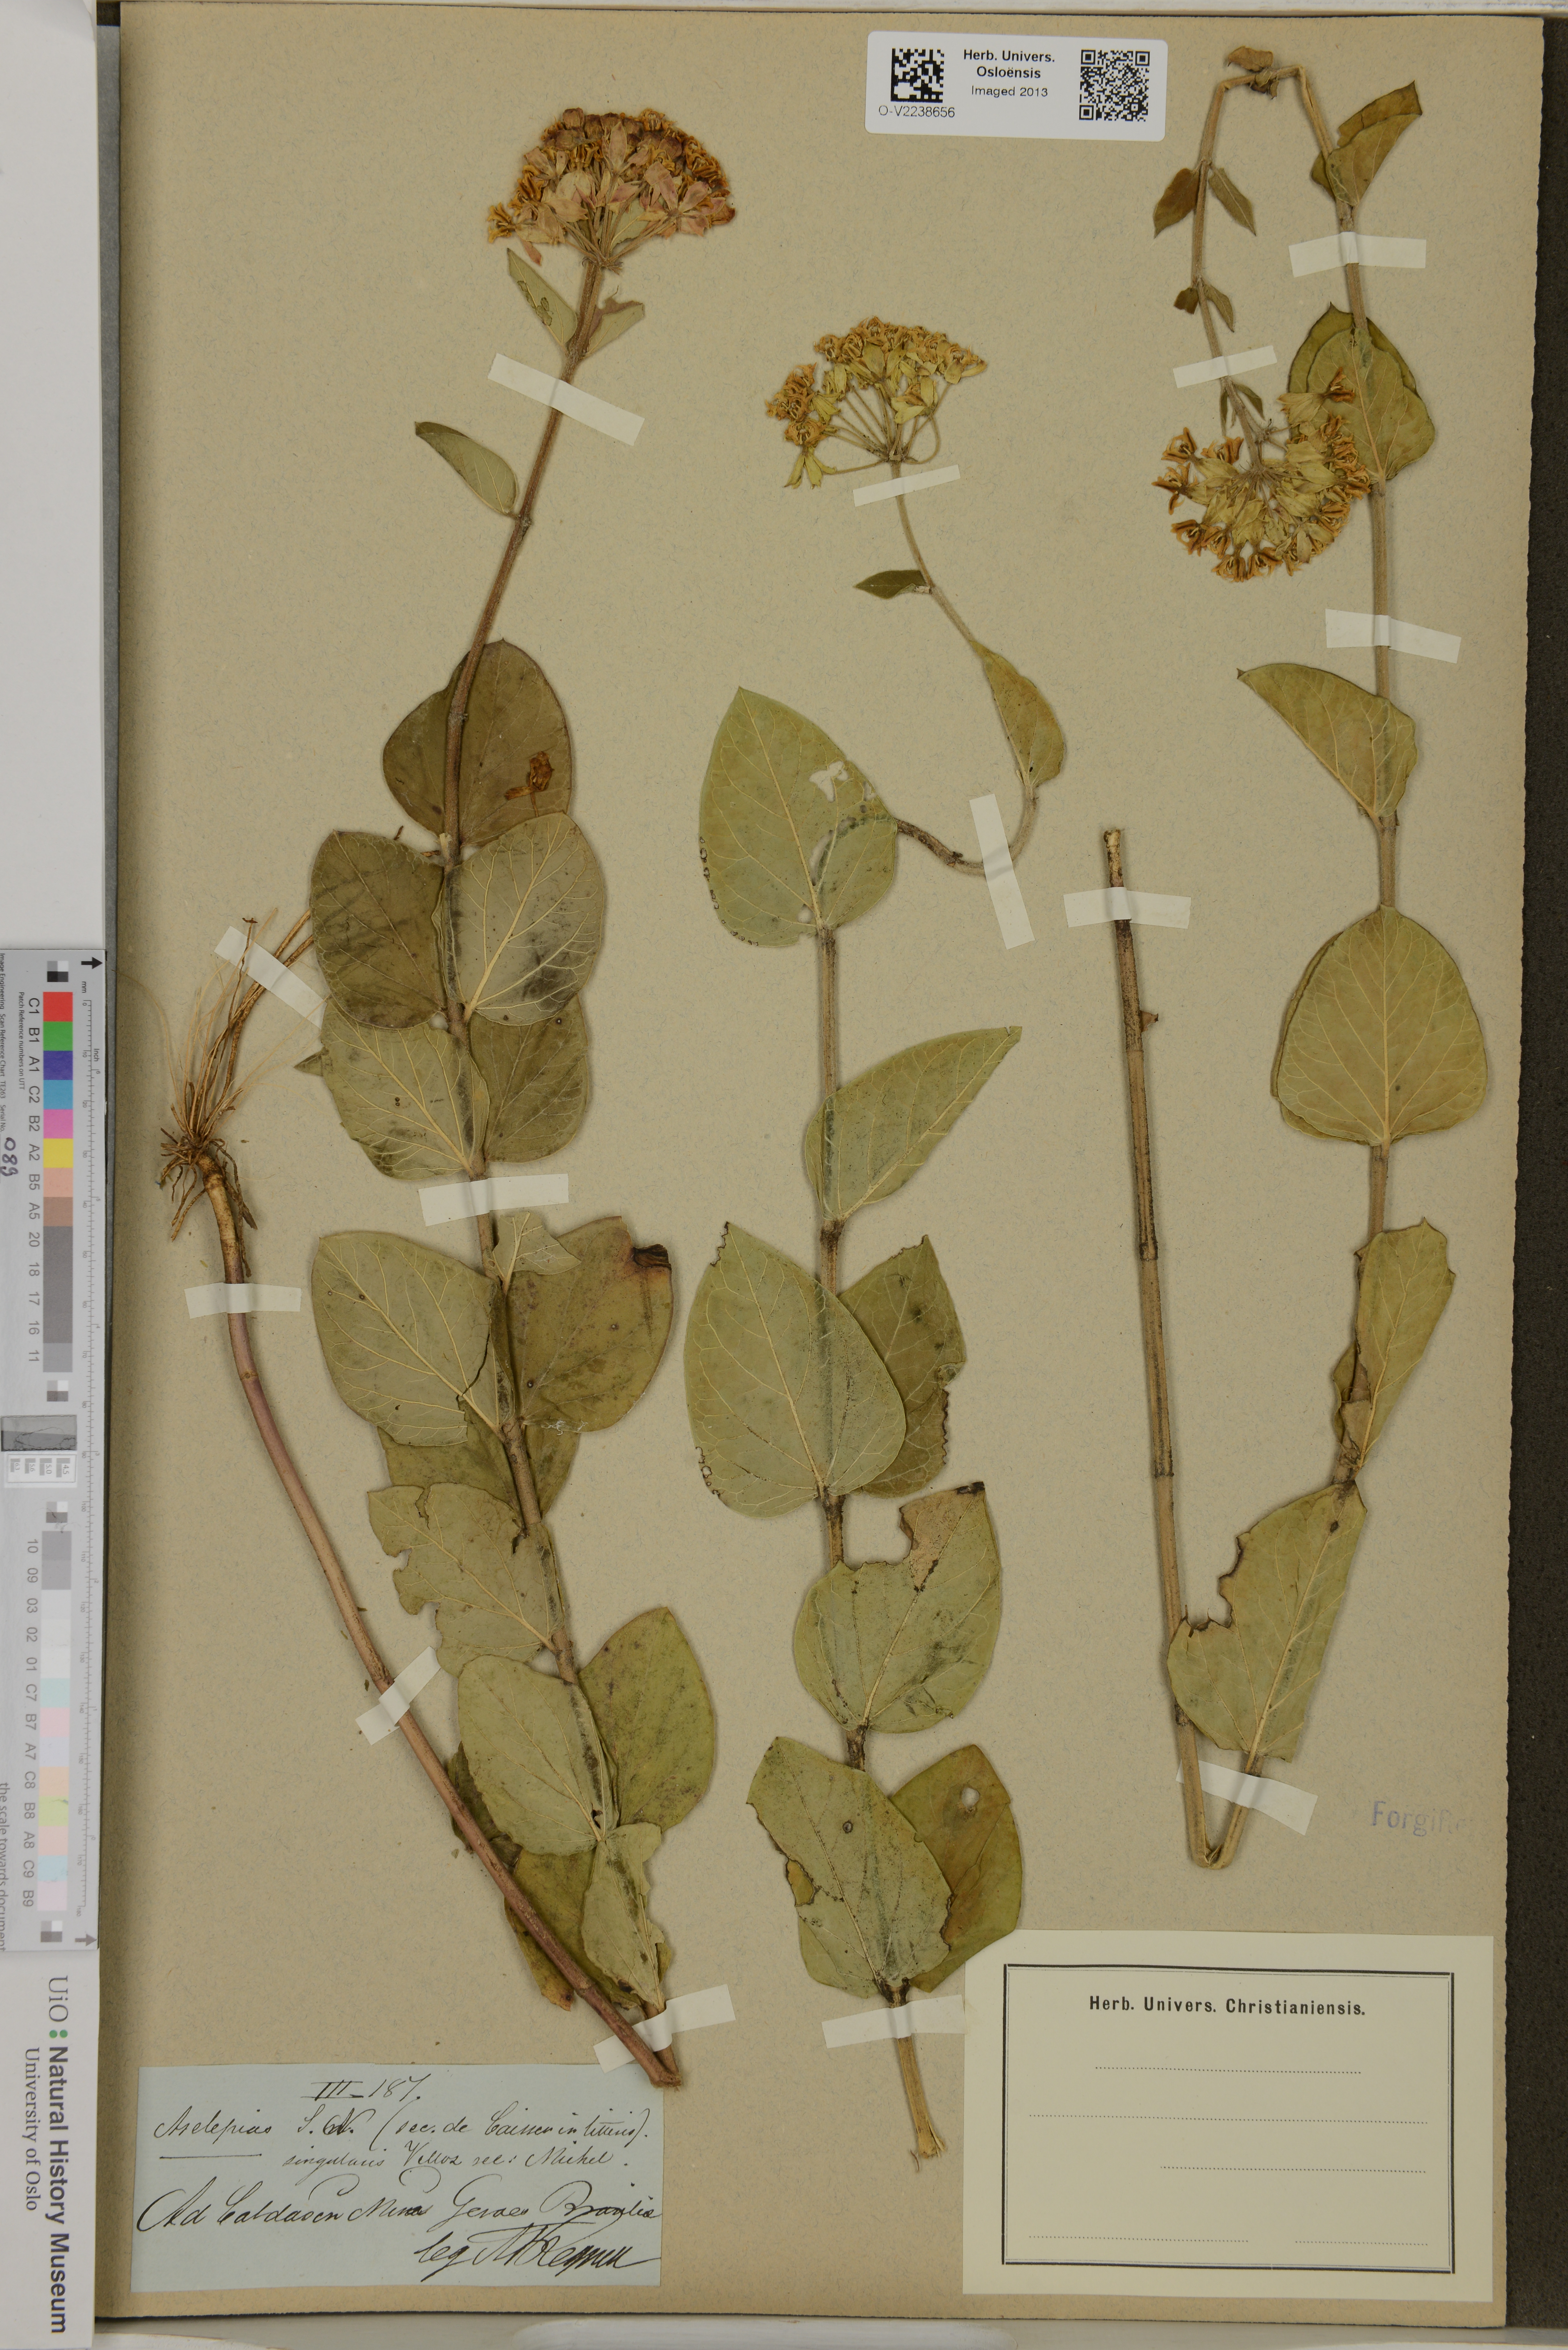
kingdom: Plantae
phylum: Tracheophyta
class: Magnoliopsida
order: Gentianales
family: Apocynaceae
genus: Asclepias
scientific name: Asclepias singularis
